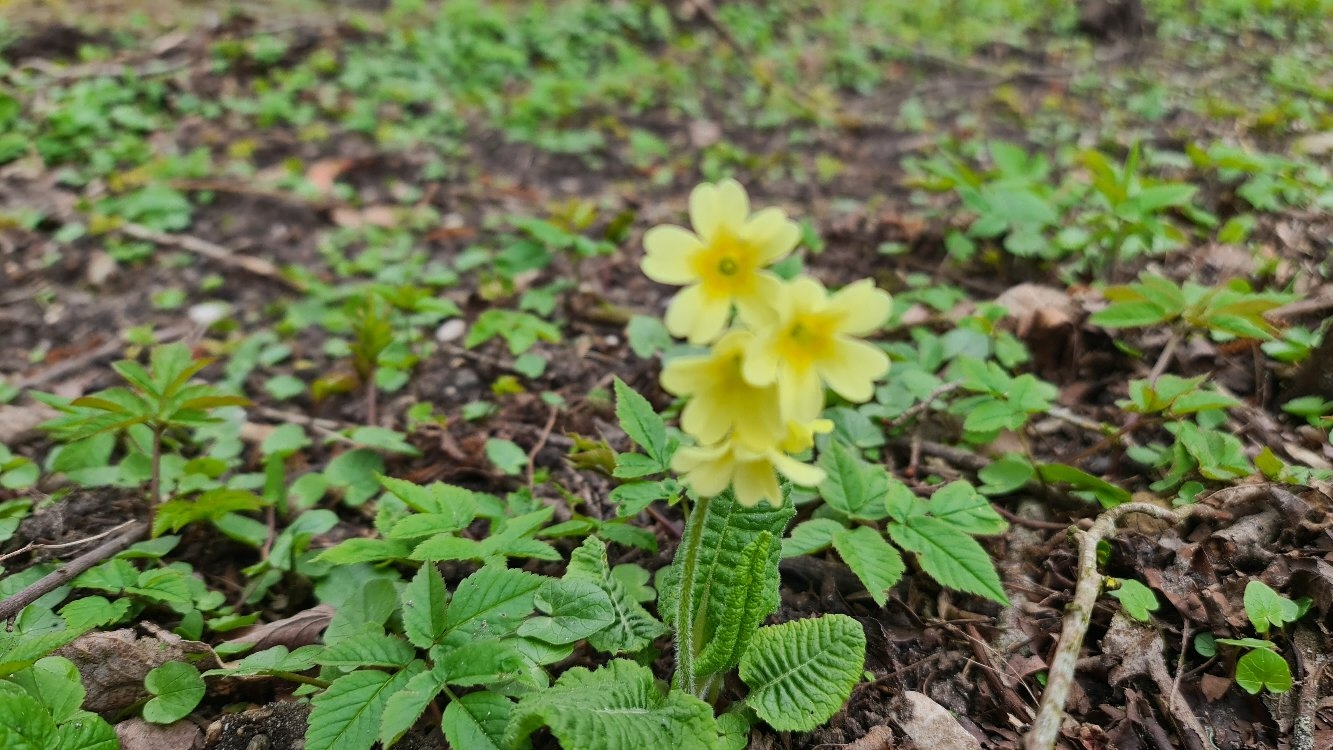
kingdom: Plantae
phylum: Tracheophyta
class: Magnoliopsida
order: Ericales
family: Primulaceae
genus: Primula
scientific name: Primula elatior
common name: Fladkravet kodriver
